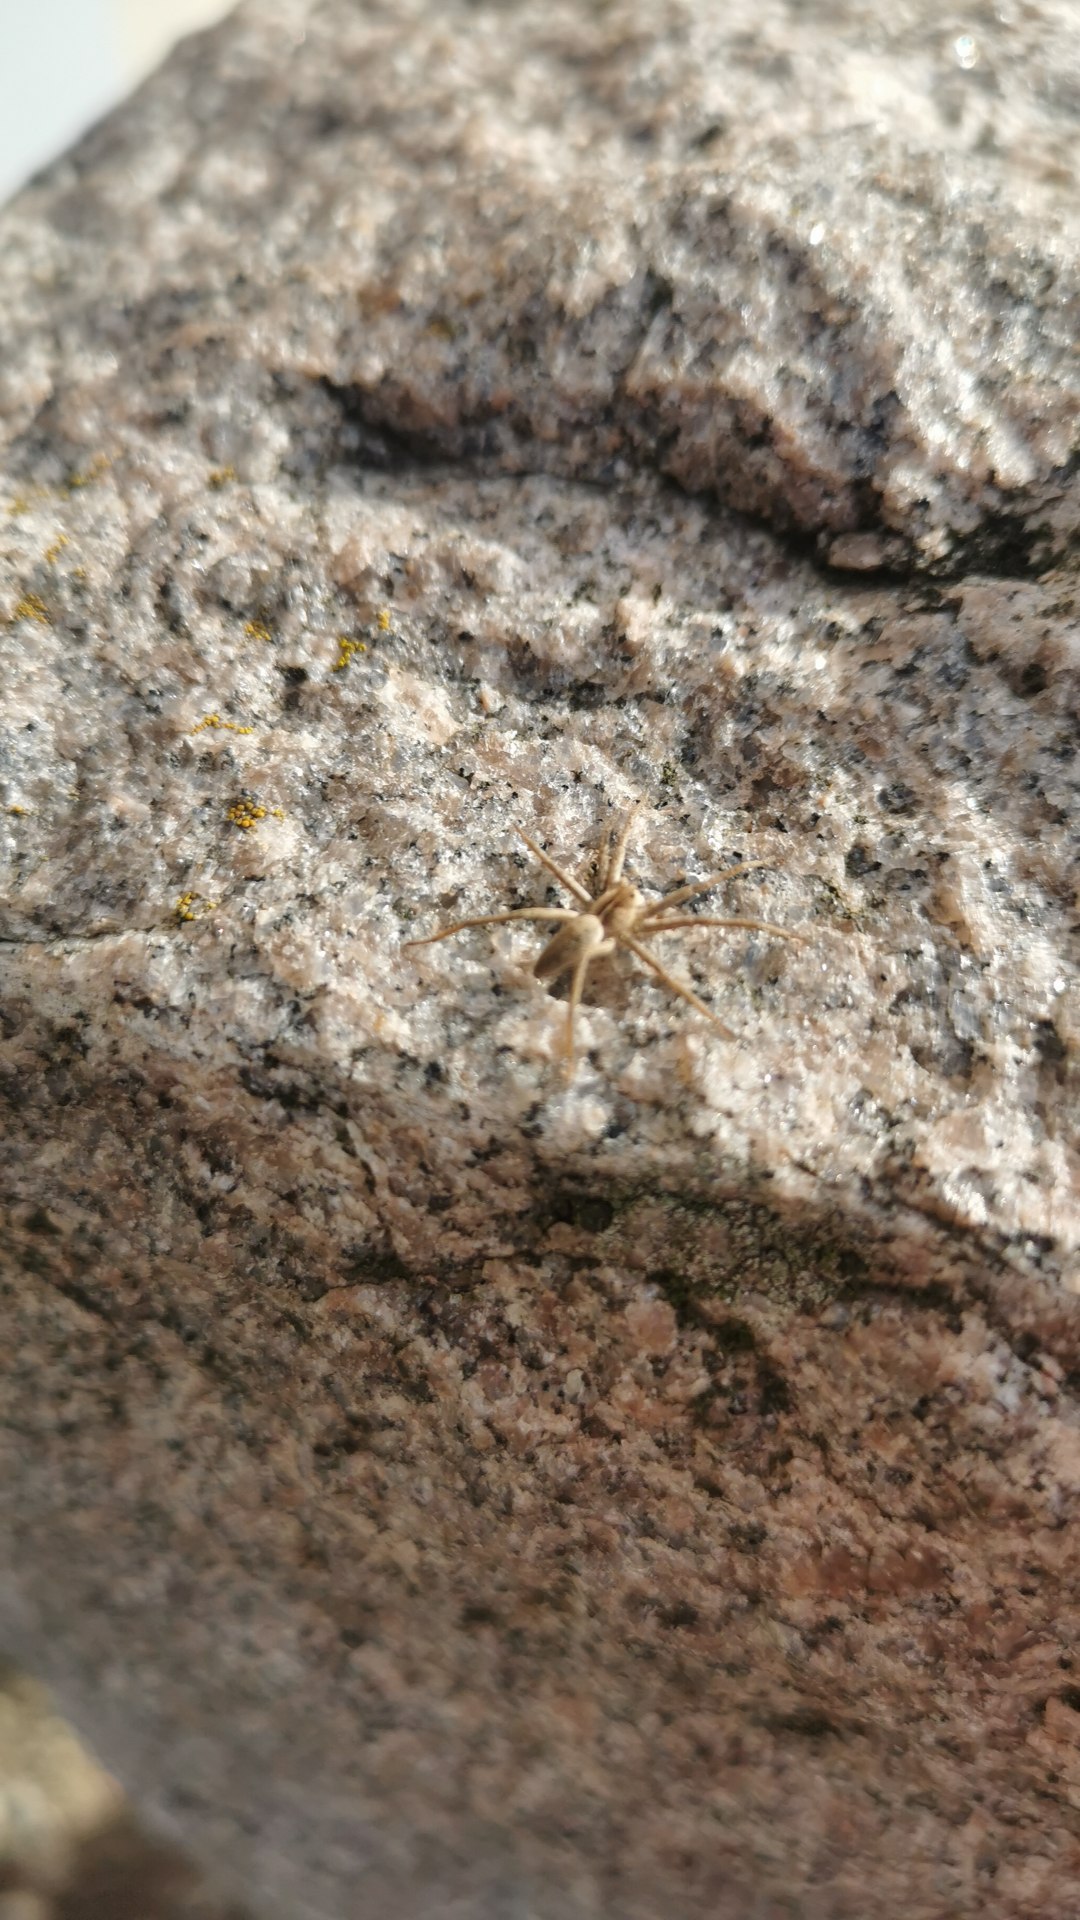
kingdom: Animalia
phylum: Arthropoda
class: Arachnida
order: Araneae
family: Pisauridae
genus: Pisaura
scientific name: Pisaura mirabilis
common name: Almindelig rovedderkop
